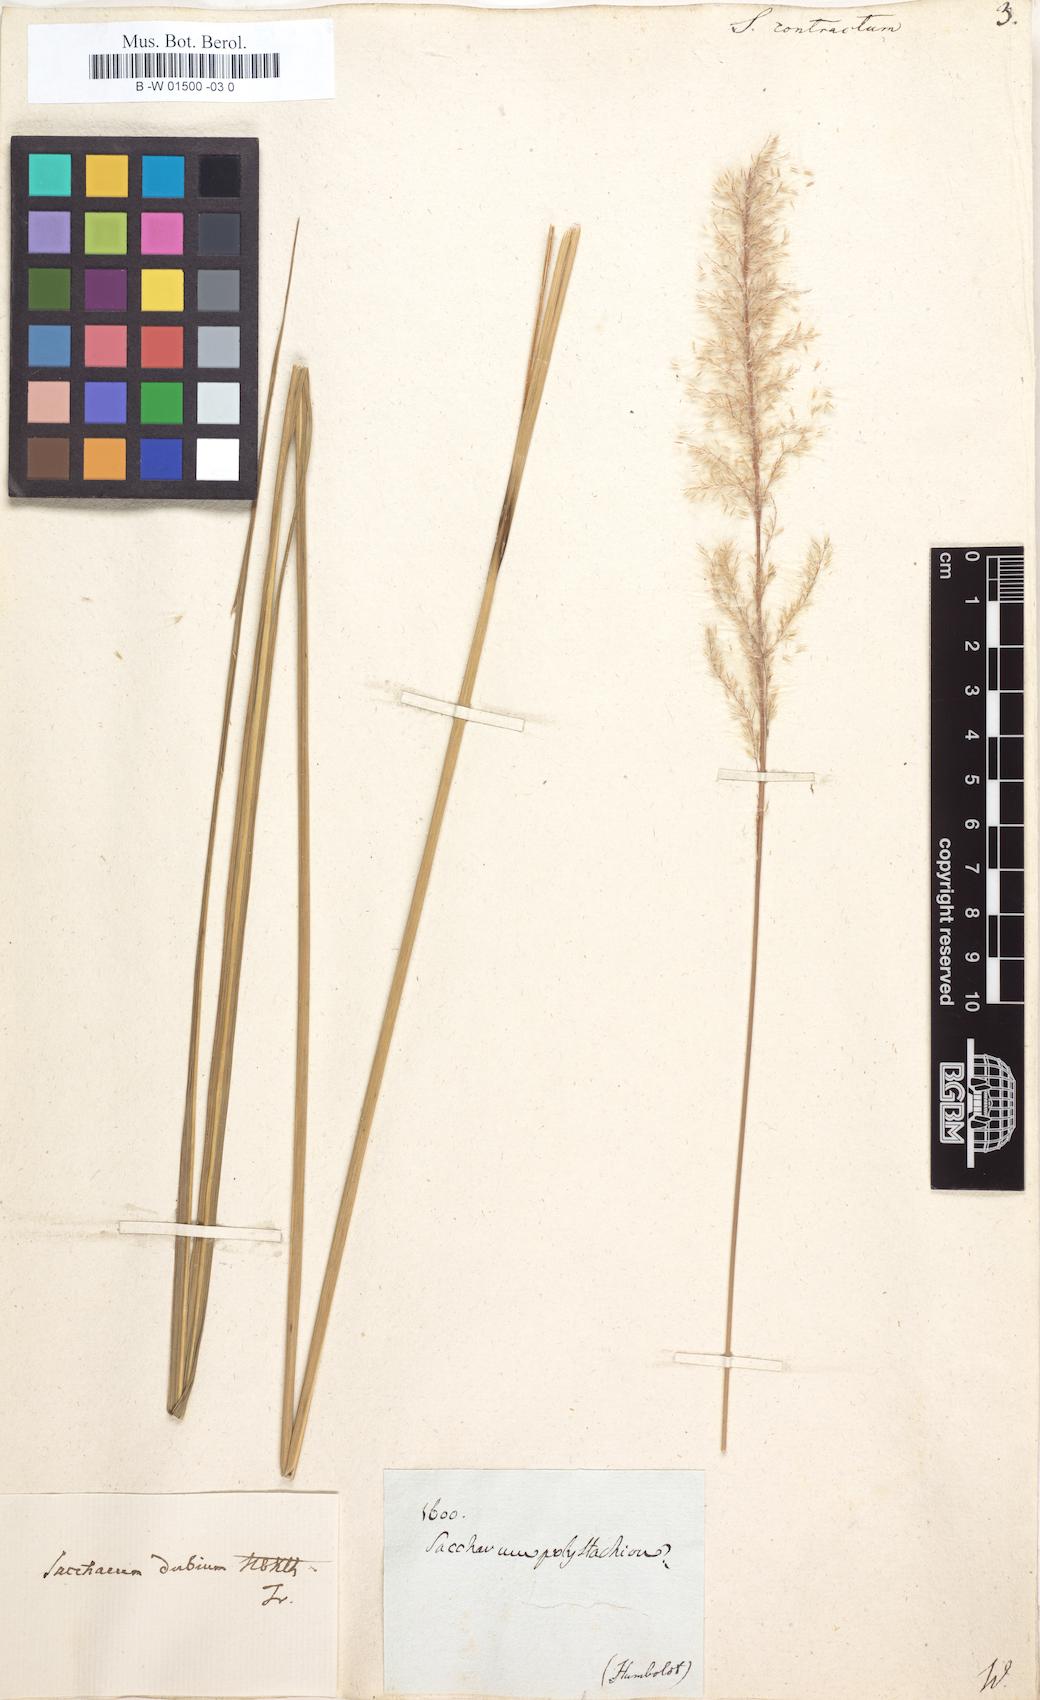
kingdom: Plantae
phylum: Tracheophyta
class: Liliopsida
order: Poales
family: Poaceae
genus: Imperata
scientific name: Imperata contracta
